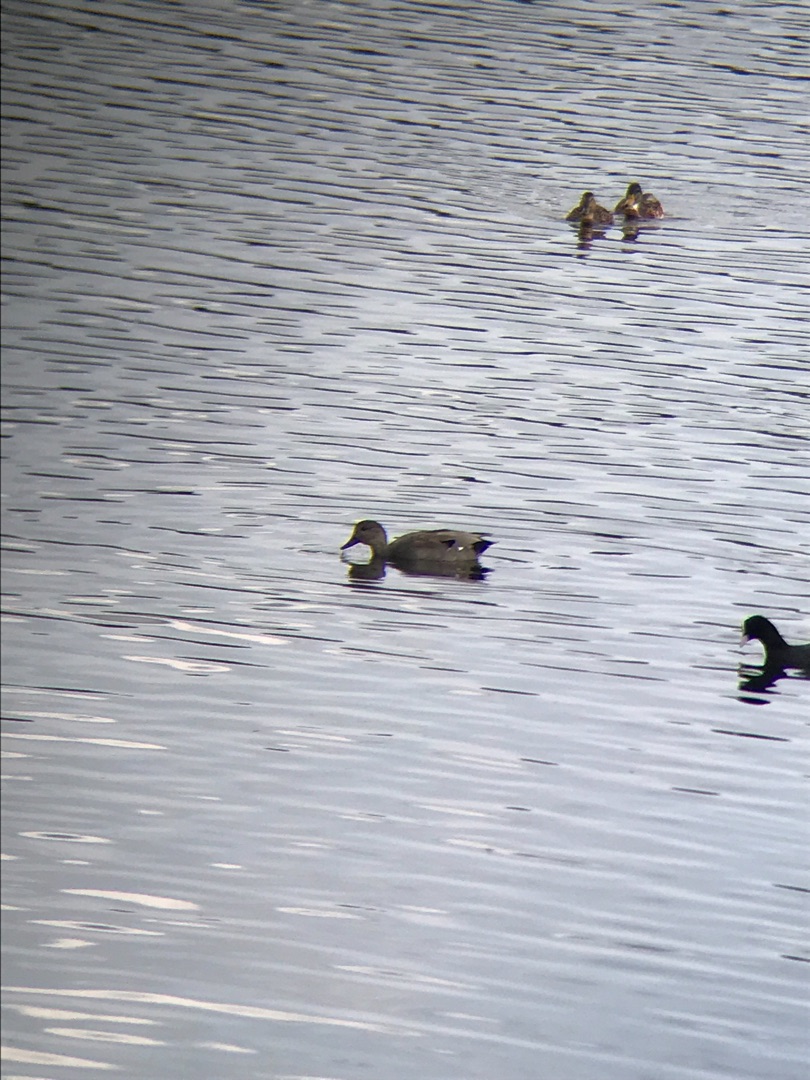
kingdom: Animalia
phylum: Chordata
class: Aves
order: Anseriformes
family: Anatidae
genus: Mareca
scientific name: Mareca strepera
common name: Knarand
